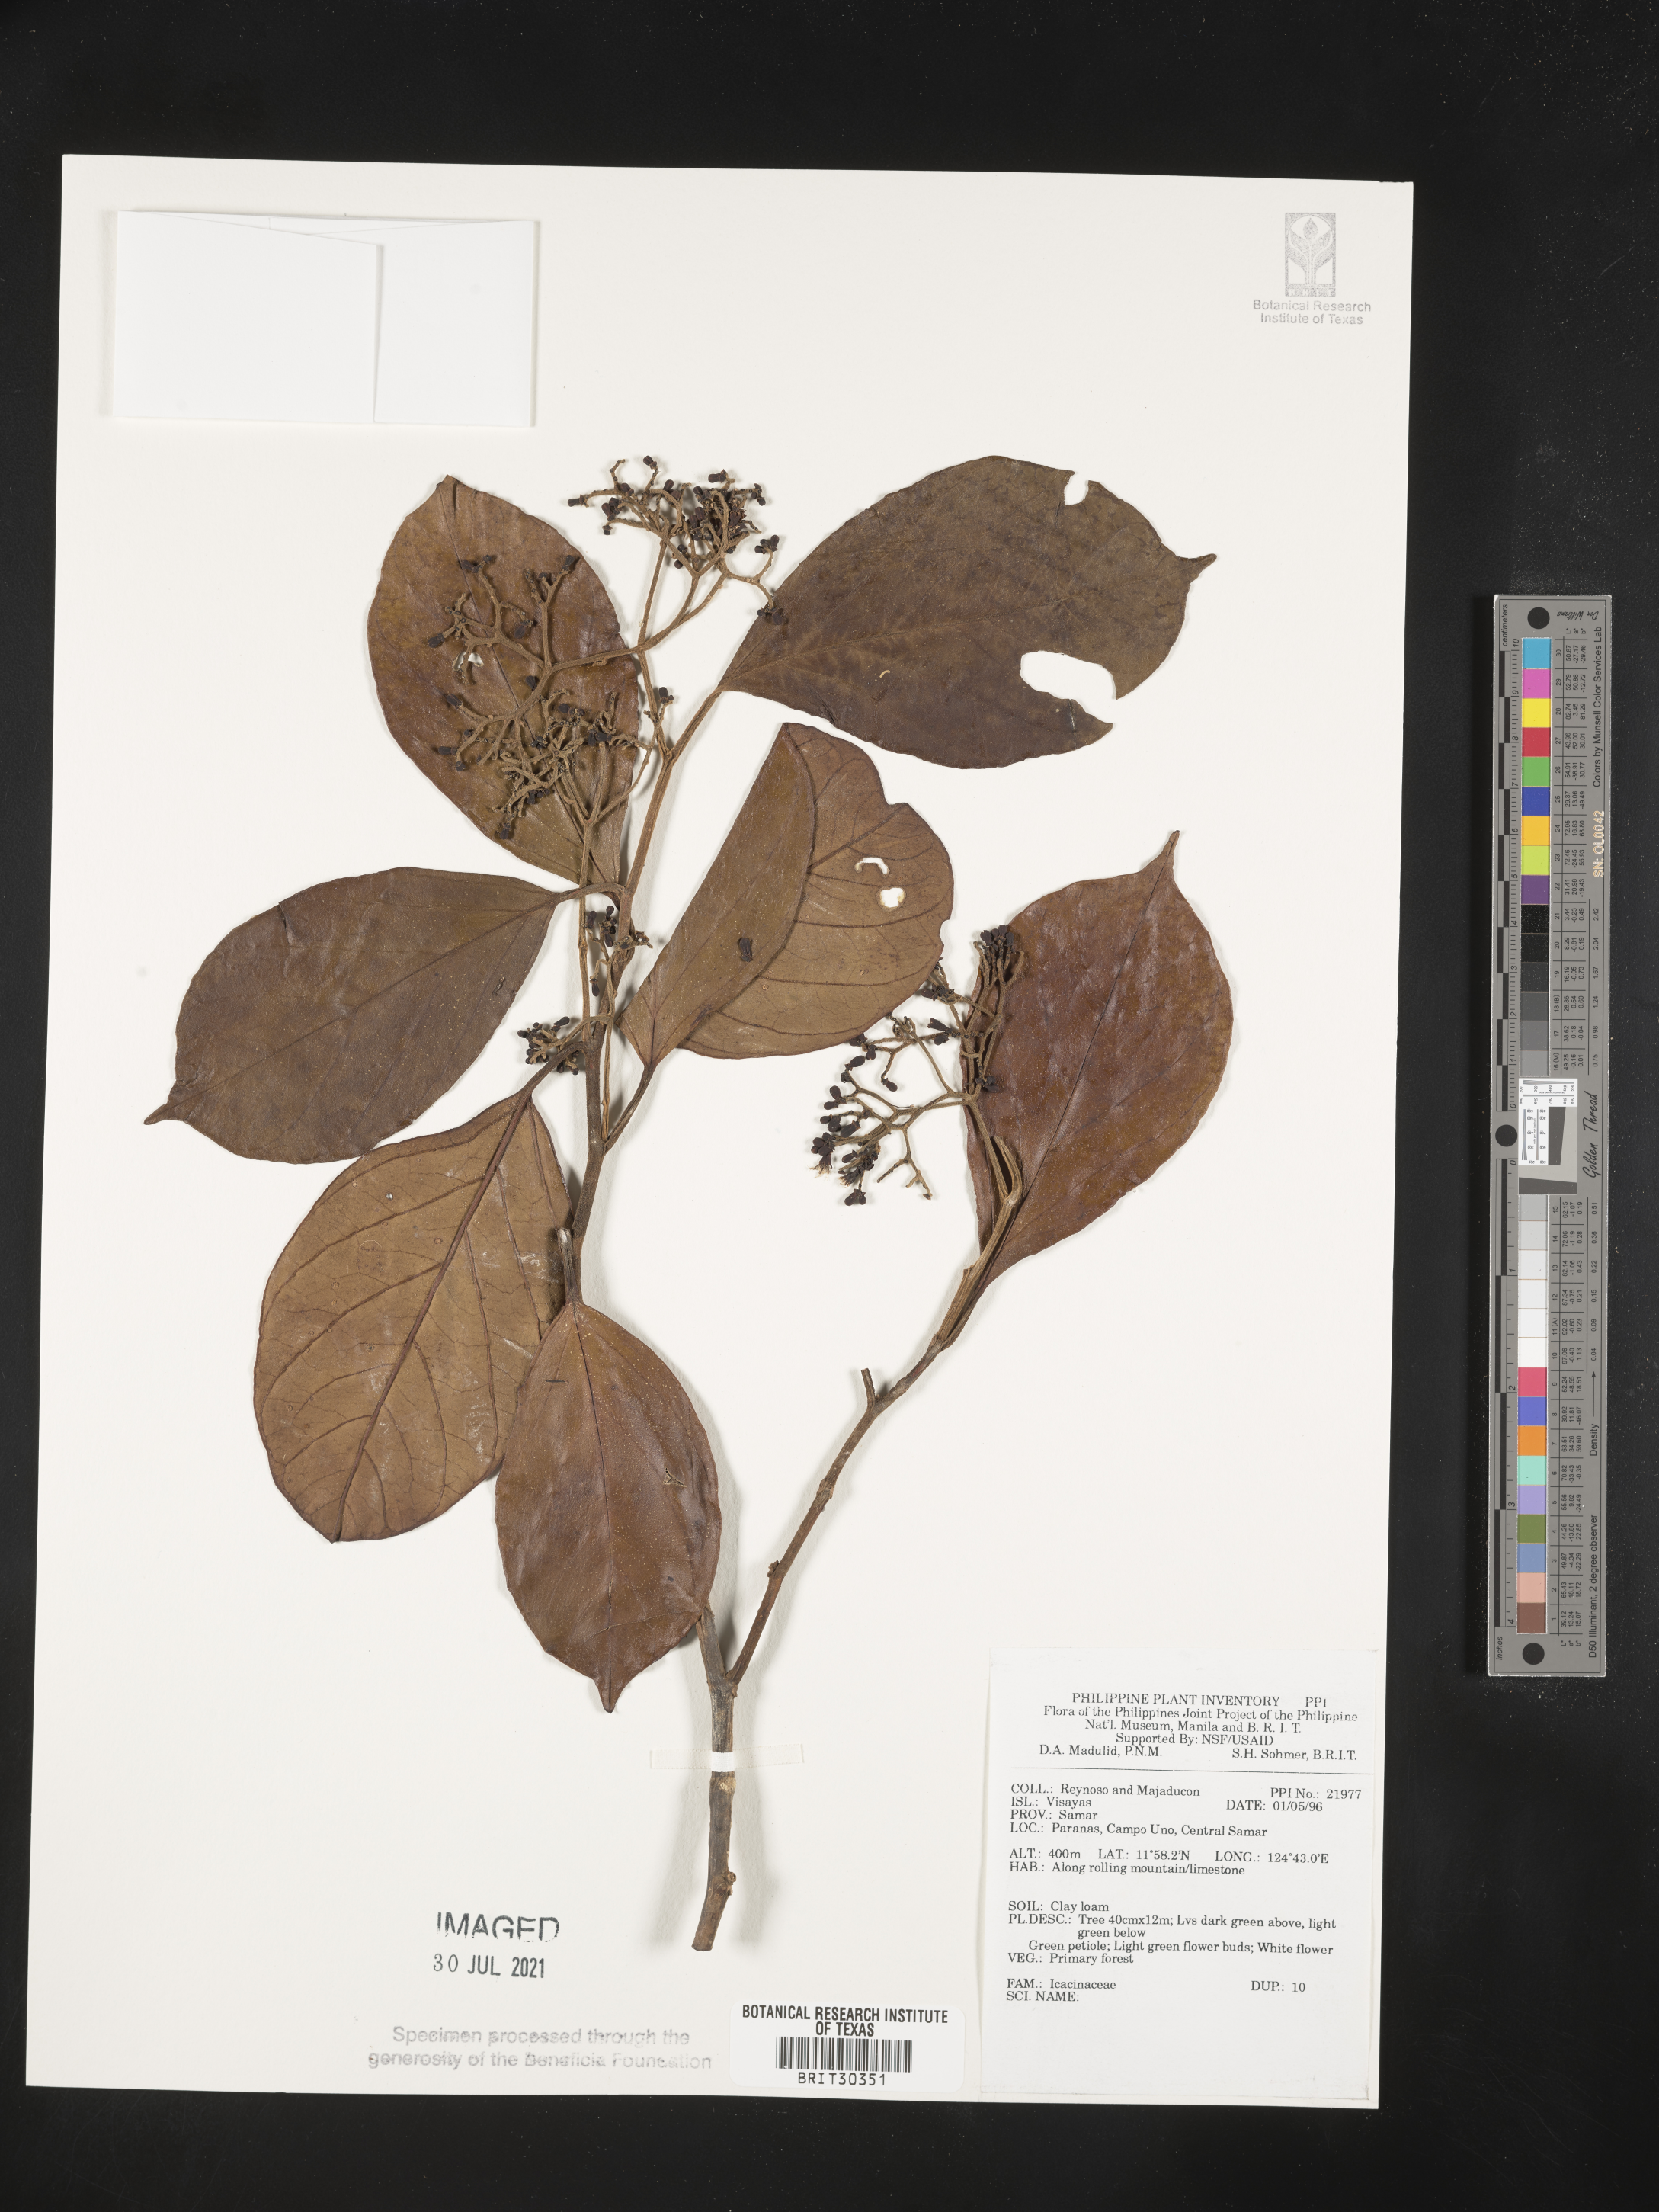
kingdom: Plantae
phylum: Tracheophyta
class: Magnoliopsida
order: Icacinales
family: Icacinaceae
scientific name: Icacinaceae
